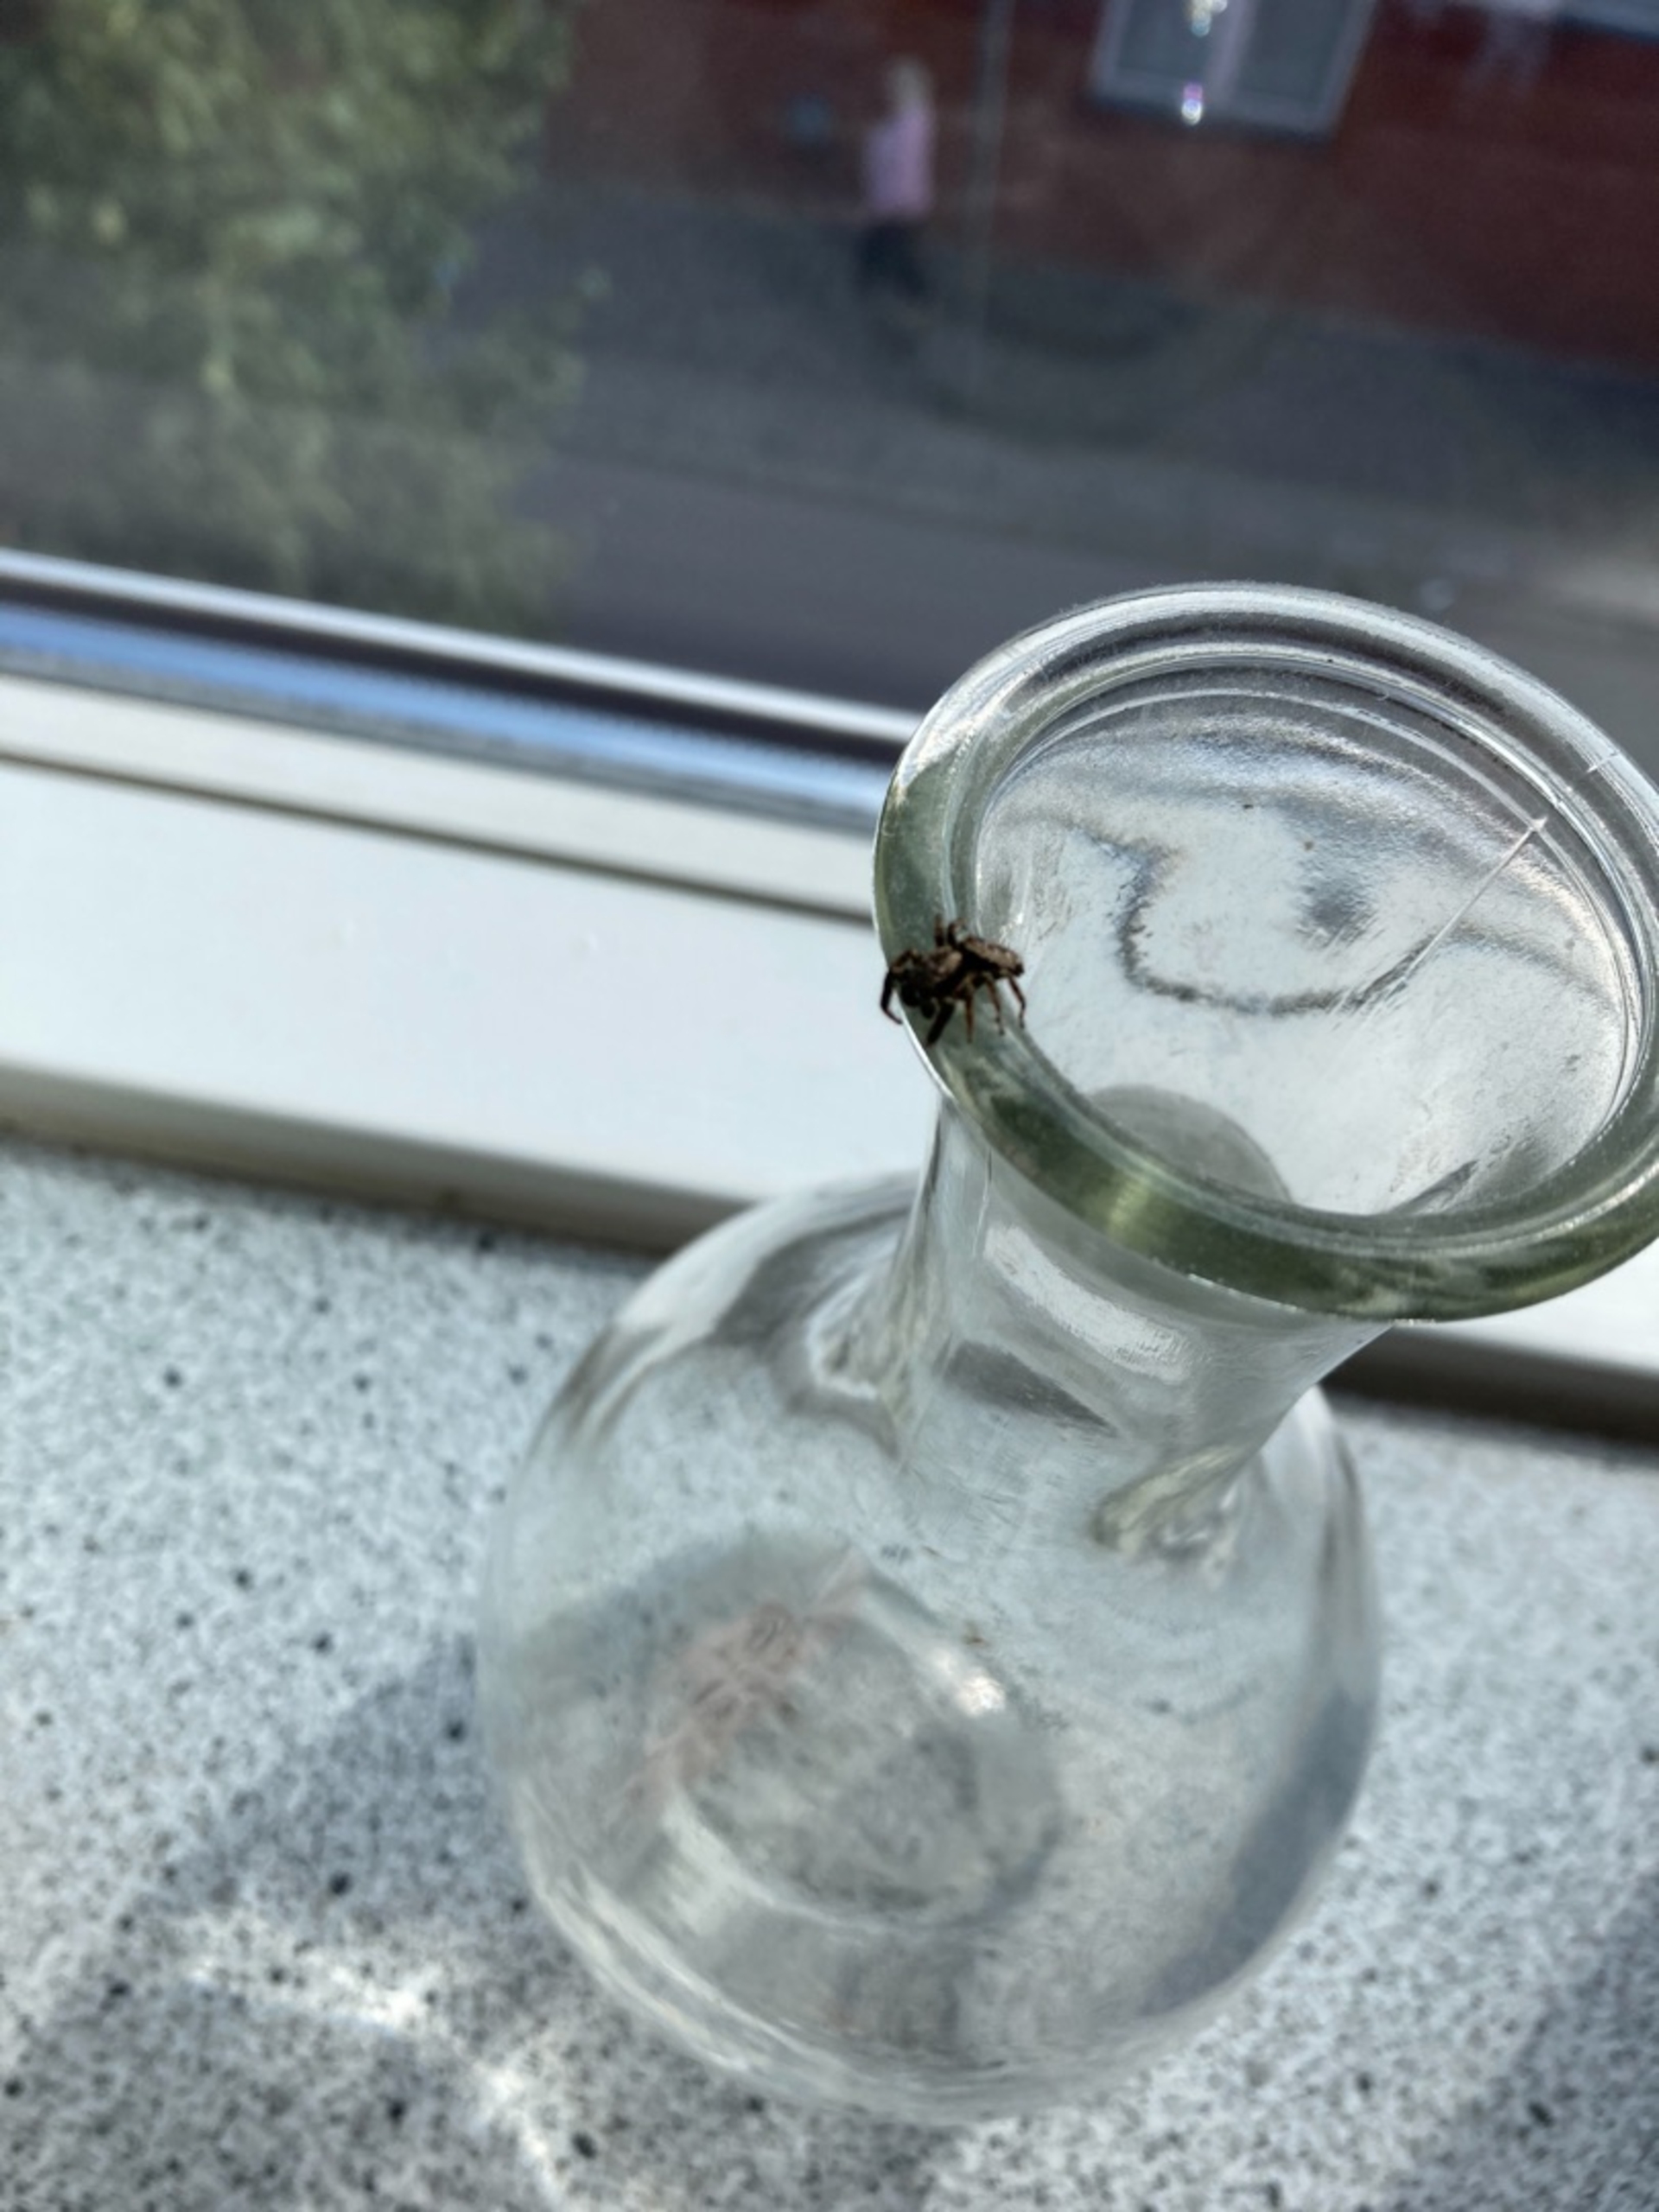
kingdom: Animalia
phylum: Arthropoda
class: Arachnida
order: Araneae
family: Salticidae
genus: Marpissa
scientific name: Marpissa muscosa
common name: Stor springedderkop
